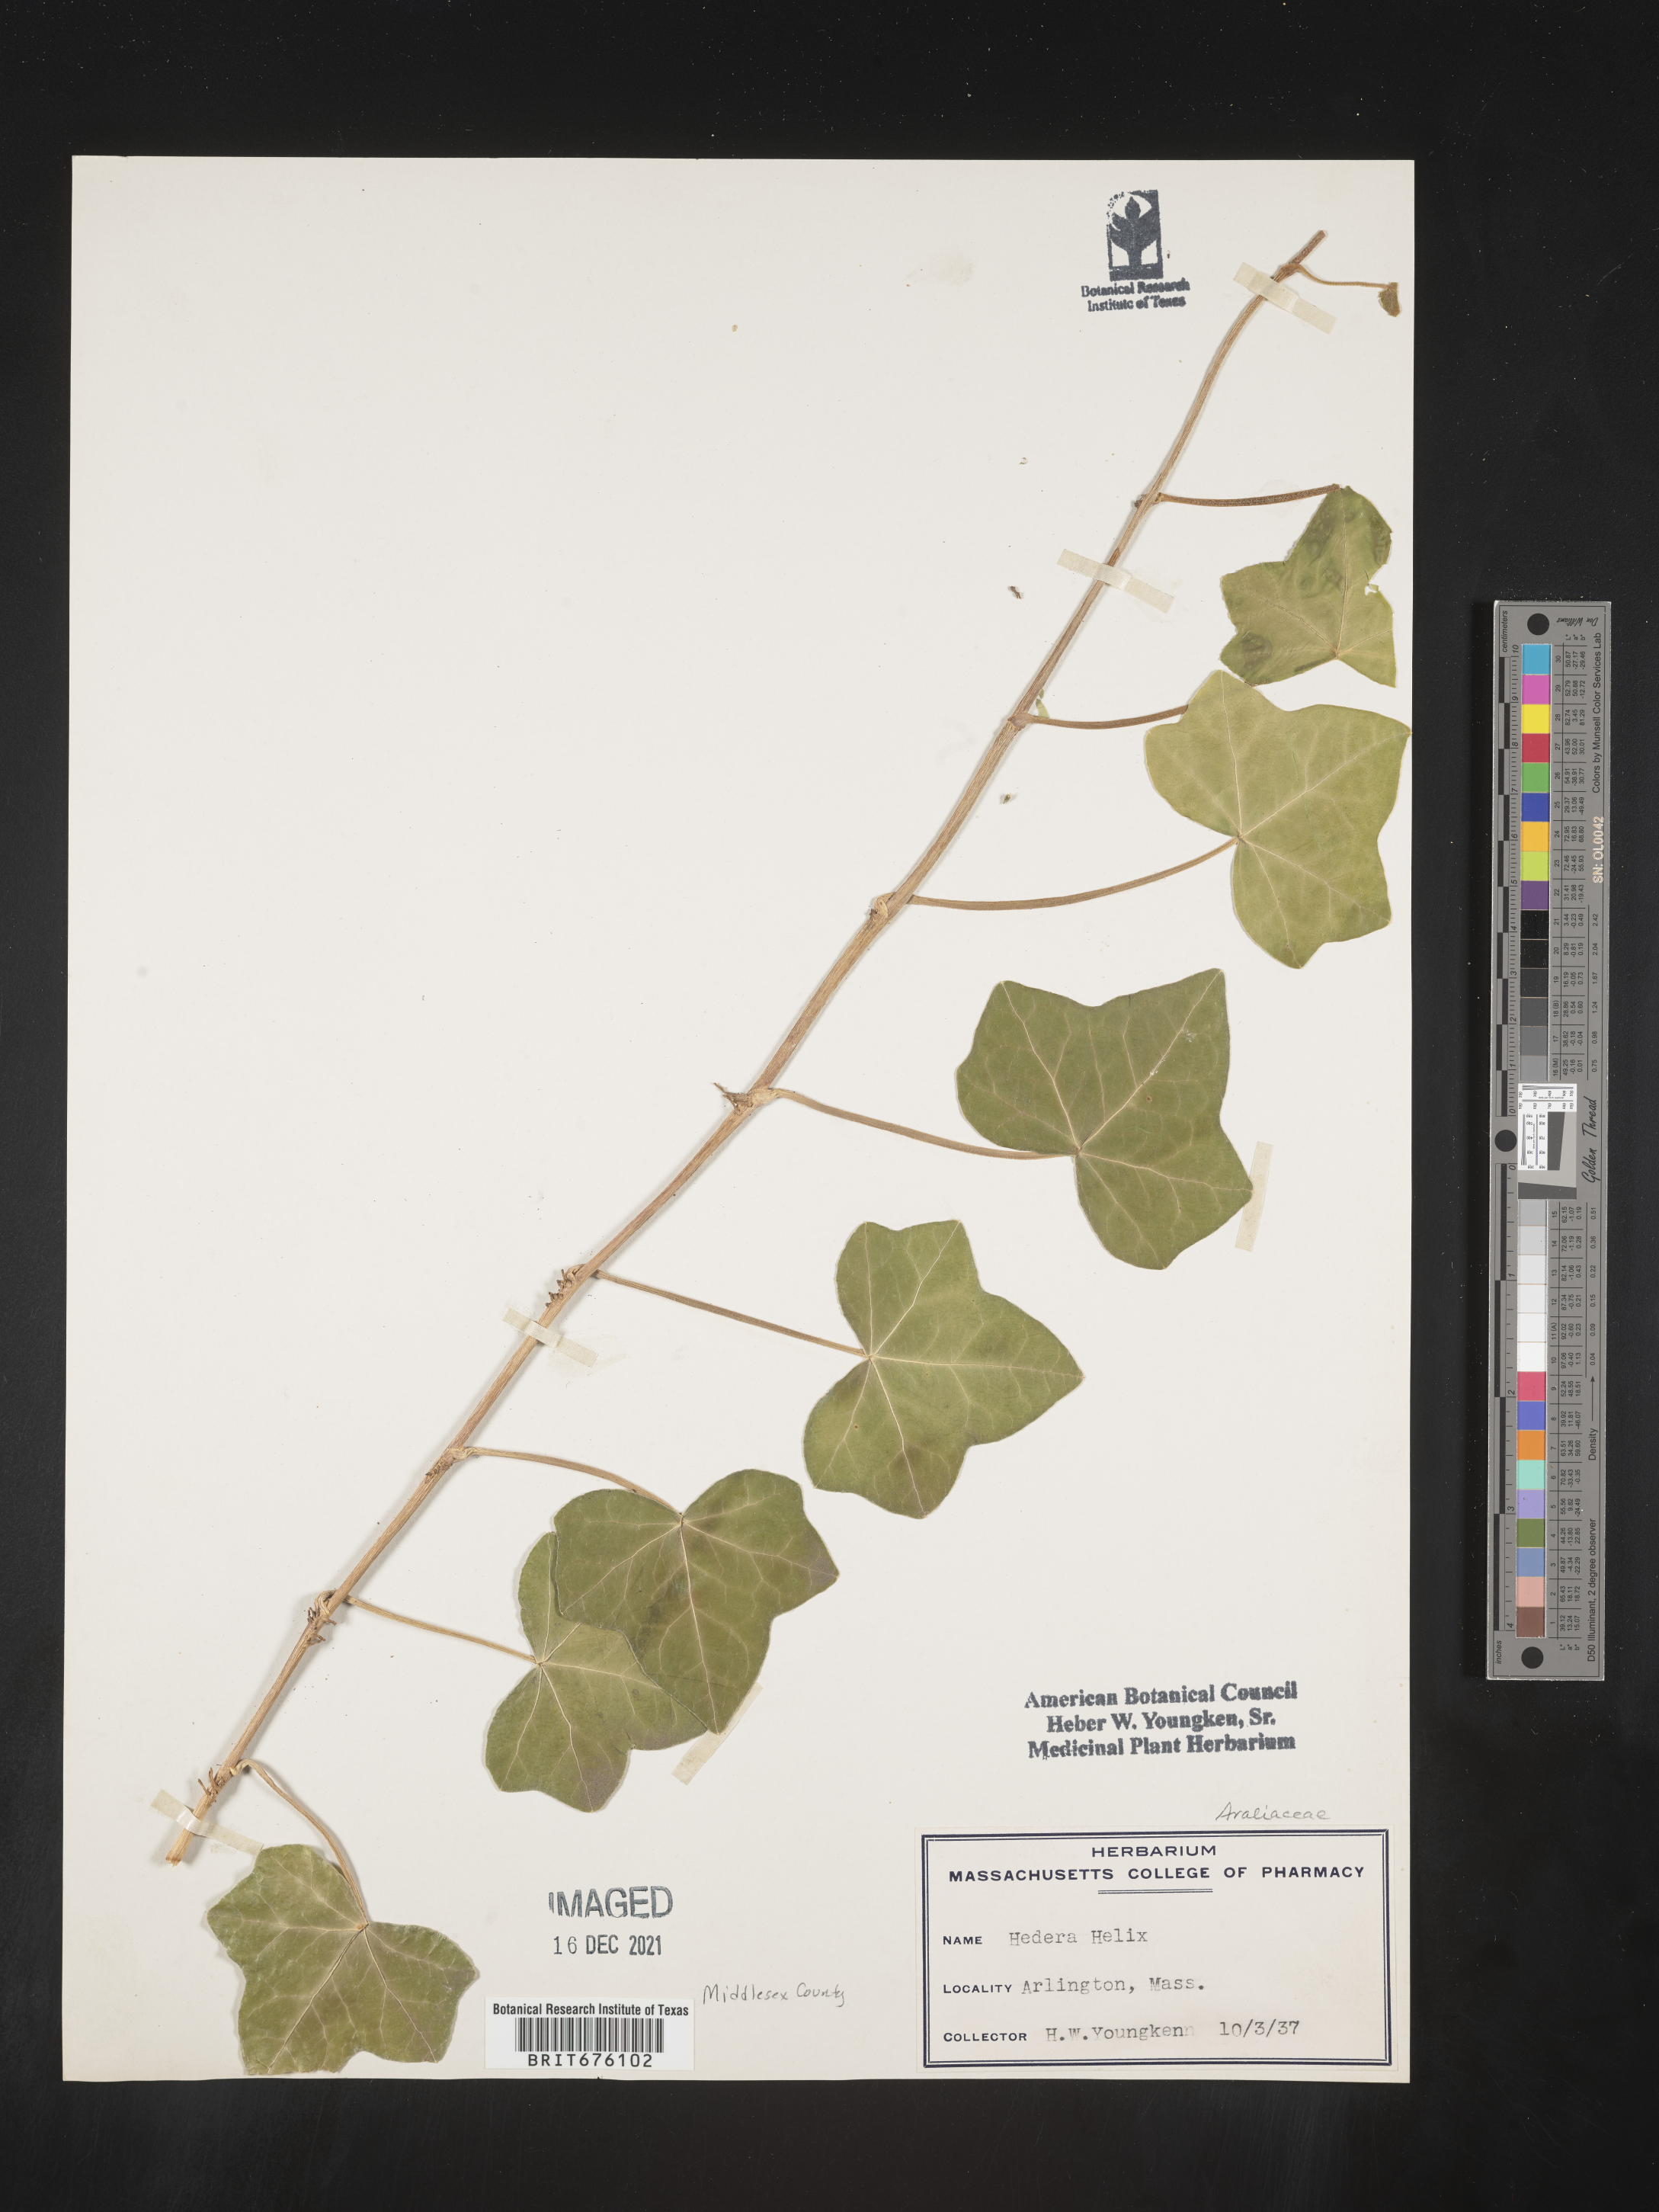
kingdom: Plantae
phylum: Tracheophyta
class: Magnoliopsida
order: Apiales
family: Araliaceae
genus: Hedera
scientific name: Hedera
